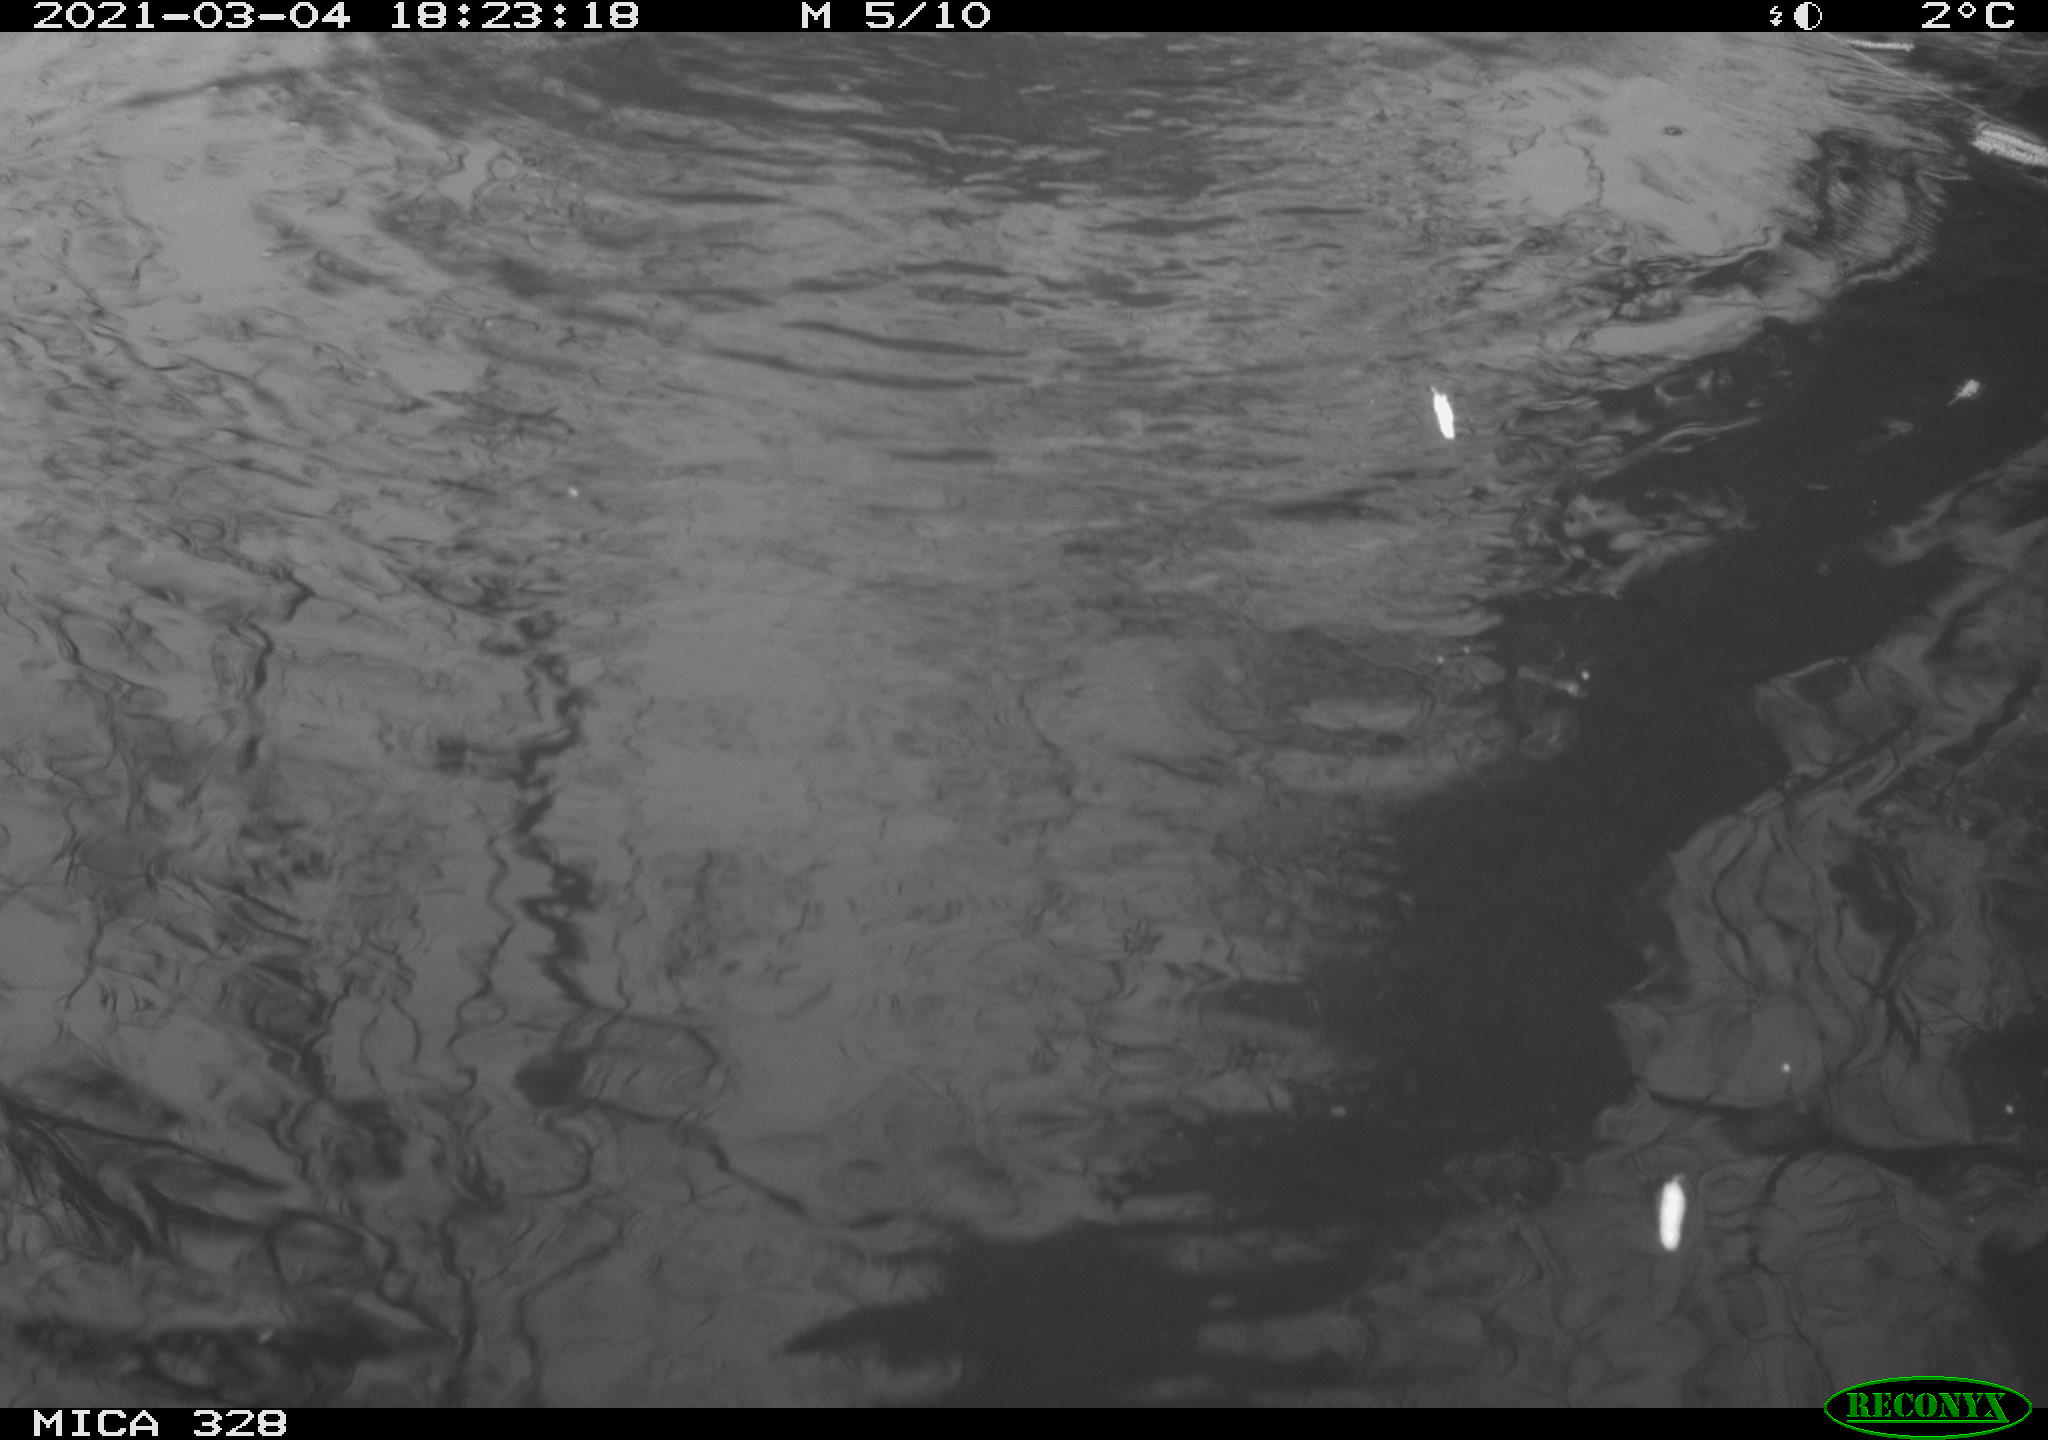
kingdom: Animalia
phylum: Chordata
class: Mammalia
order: Rodentia
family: Cricetidae
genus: Ondatra
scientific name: Ondatra zibethicus
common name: Muskrat
